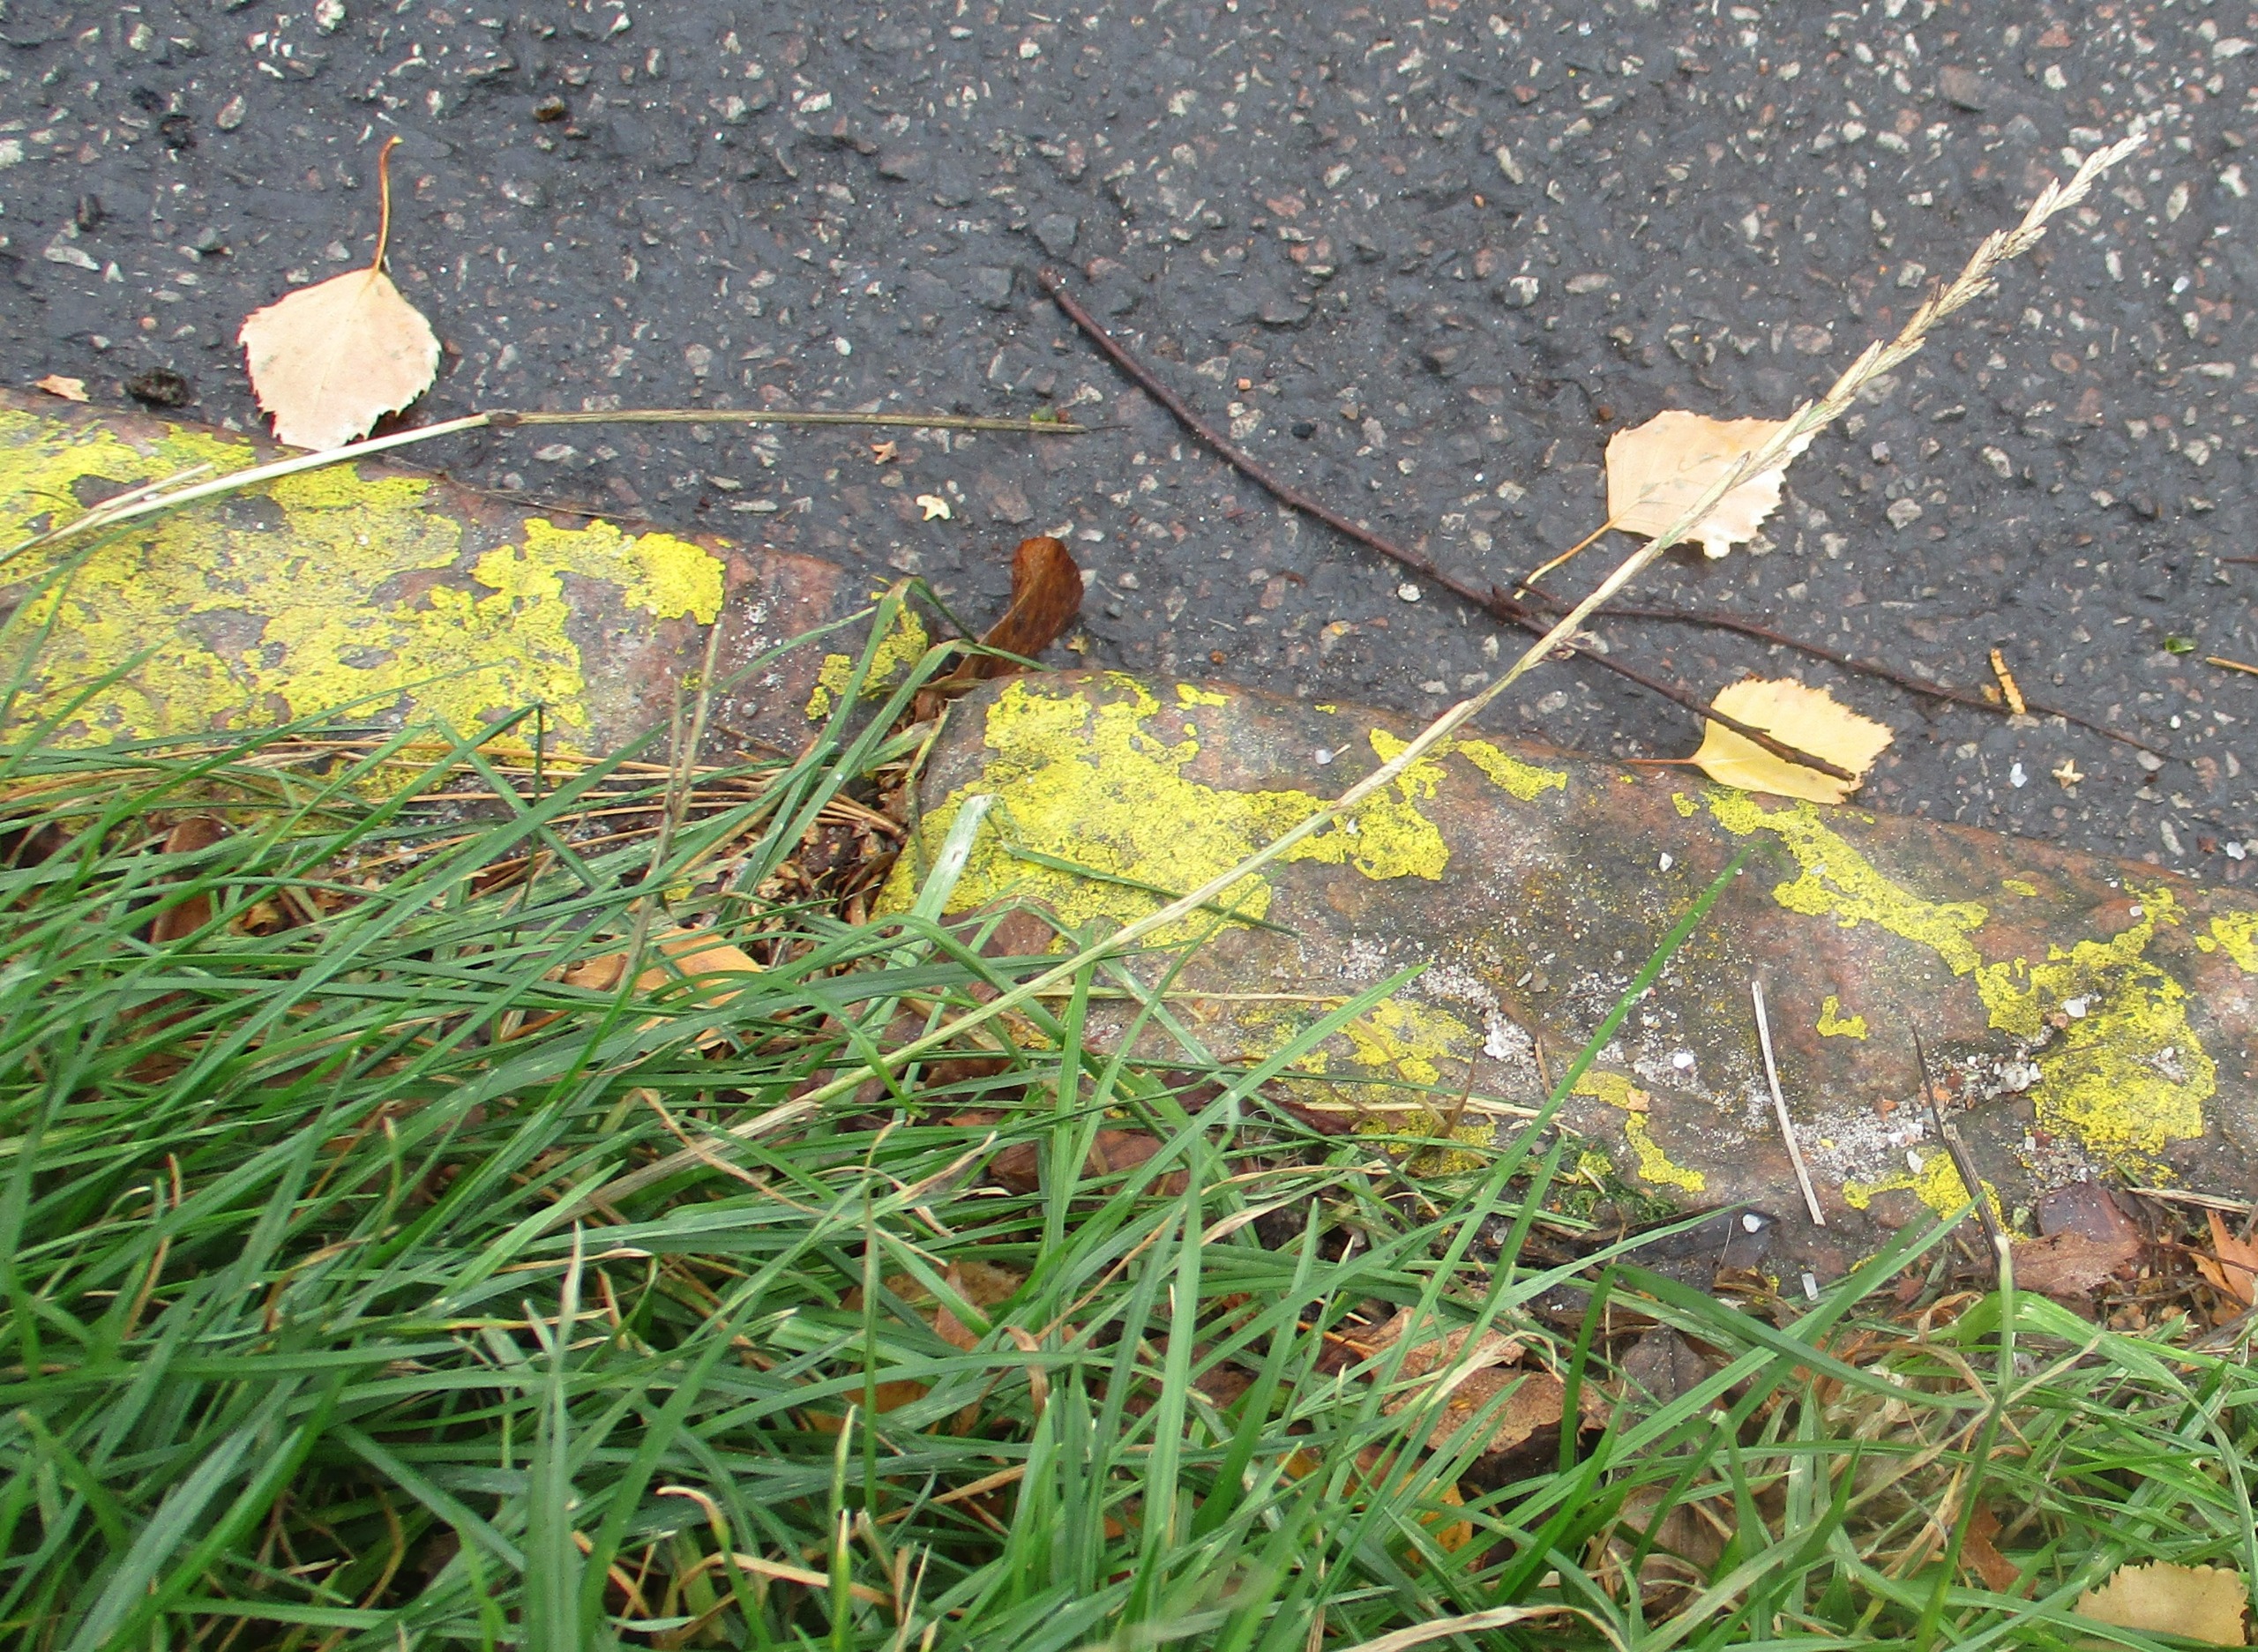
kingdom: Plantae
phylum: Tracheophyta
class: Liliopsida
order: Poales
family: Poaceae
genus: Lolium
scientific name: Lolium perenne
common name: Almindelig rajgræs
